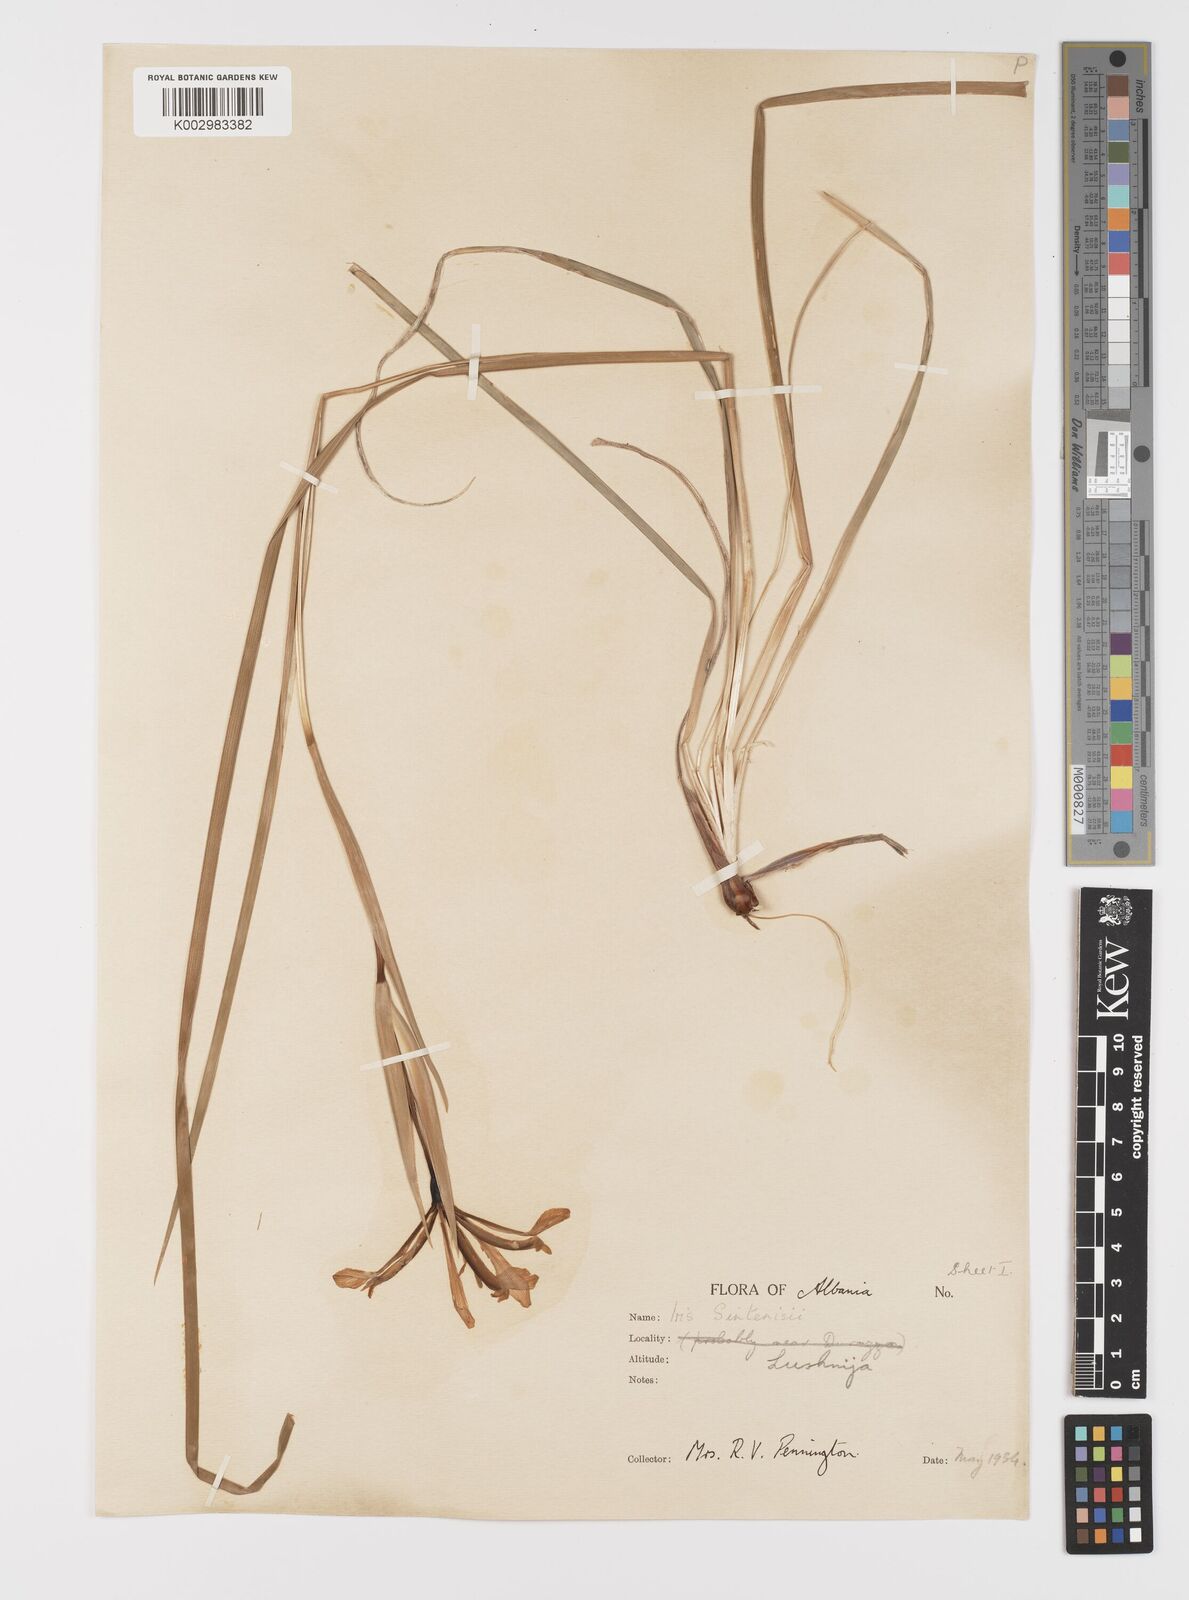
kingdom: Plantae
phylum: Tracheophyta
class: Liliopsida
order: Asparagales
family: Iridaceae
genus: Iris
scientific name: Iris sintenisii
